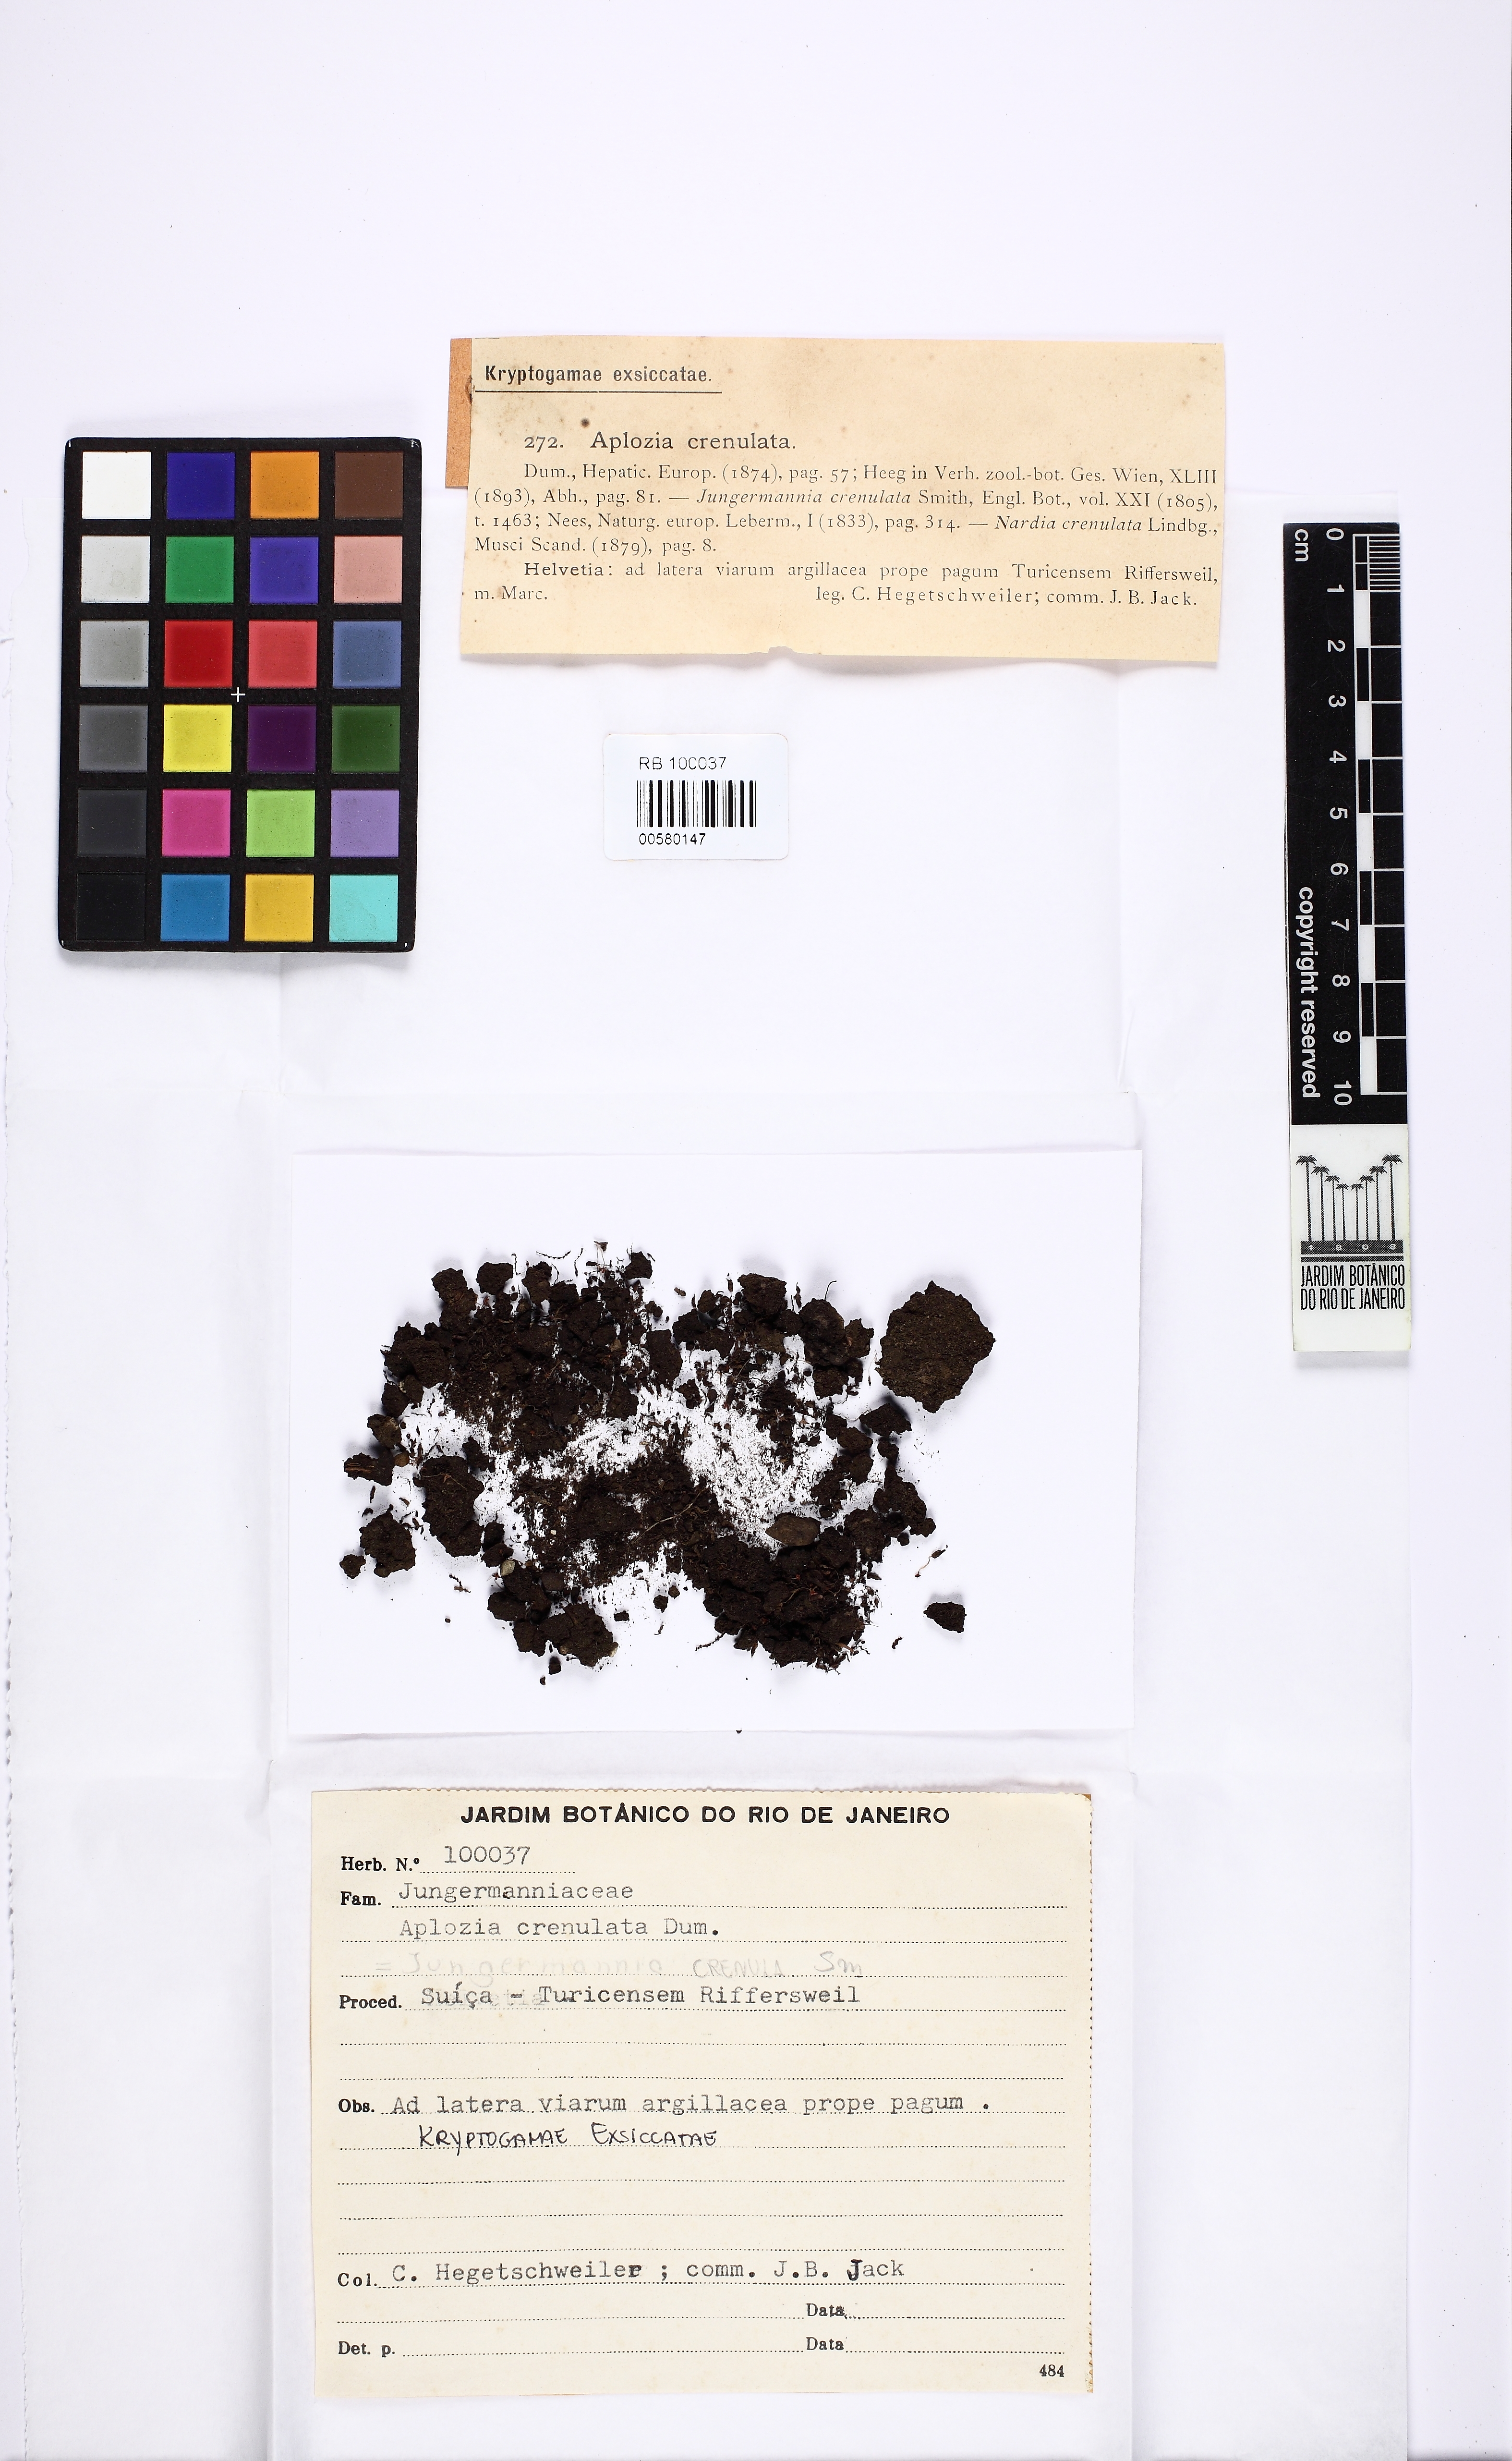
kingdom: Plantae
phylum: Marchantiophyta
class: Jungermanniopsida
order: Jungermanniales
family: Solenostomataceae
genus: Solenostoma
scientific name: Solenostoma gracillimum
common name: Crenulated flapwort
